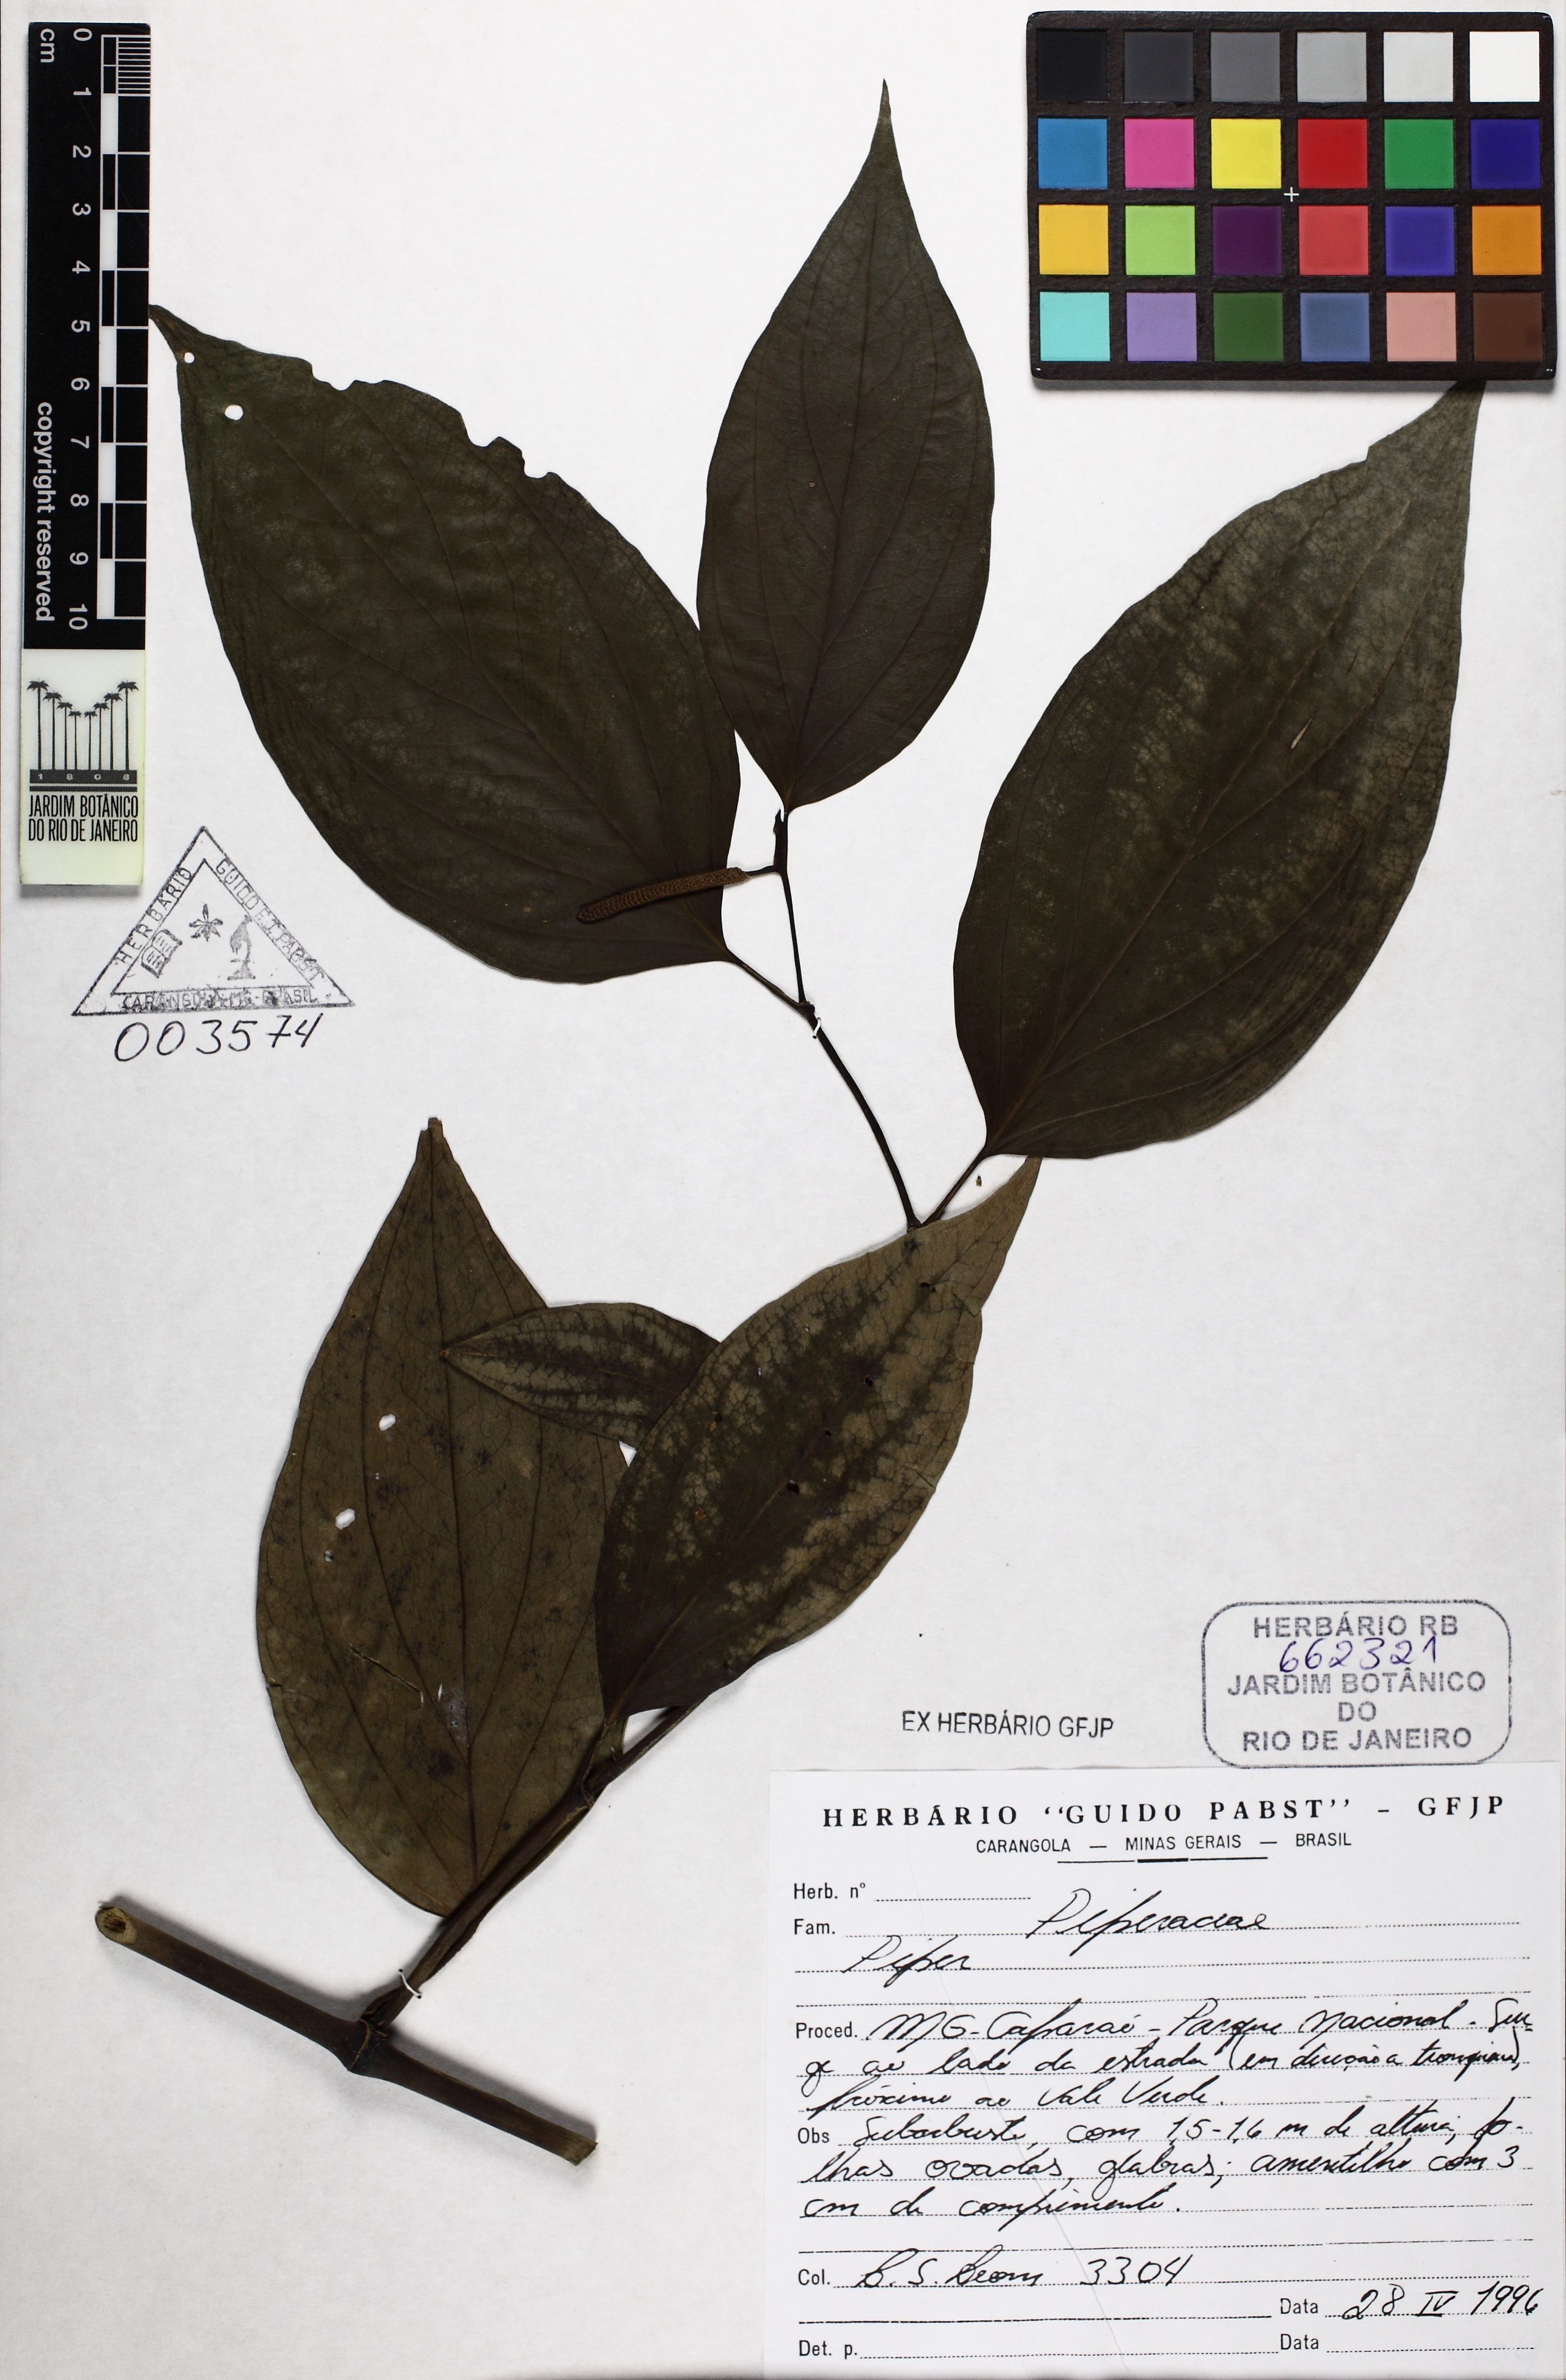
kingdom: Plantae
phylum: Tracheophyta
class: Magnoliopsida
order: Piperales
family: Piperaceae
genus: Piper
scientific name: Piper lhotzkyanum
